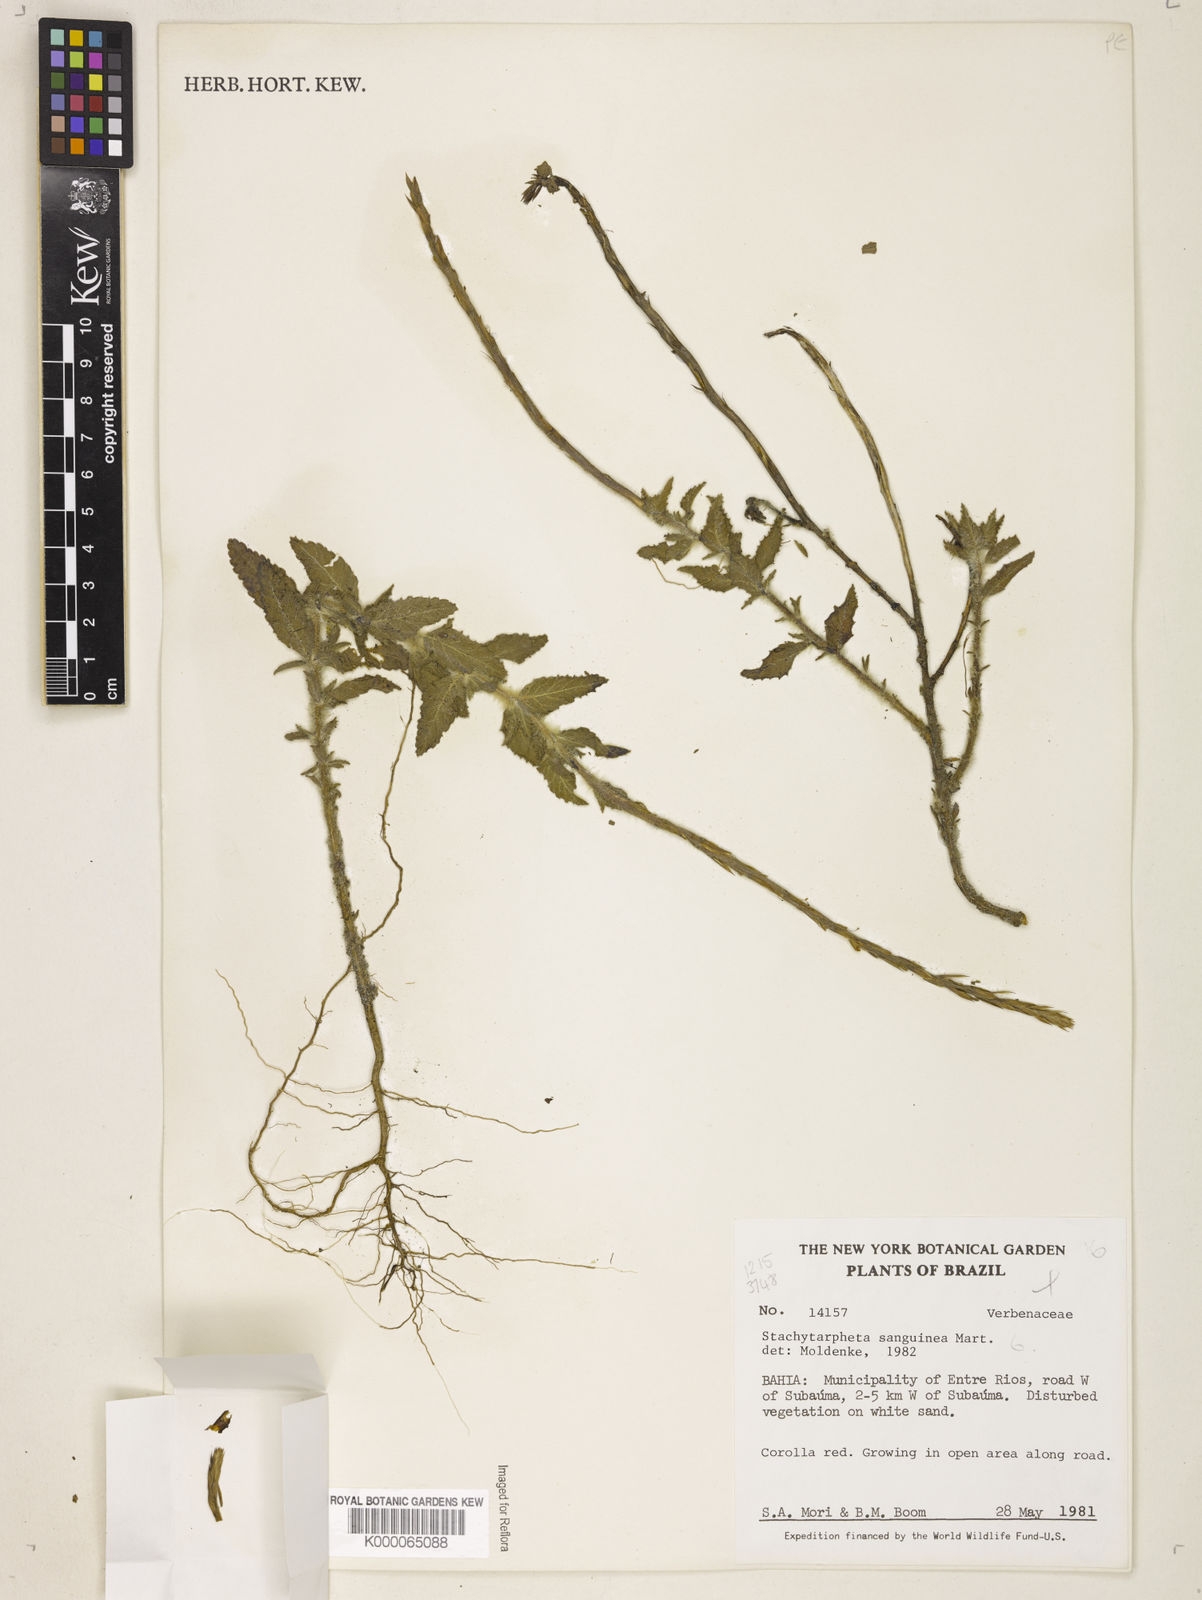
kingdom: Plantae
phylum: Tracheophyta
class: Magnoliopsida
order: Lamiales
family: Verbenaceae
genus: Stachytarpheta
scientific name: Stachytarpheta
